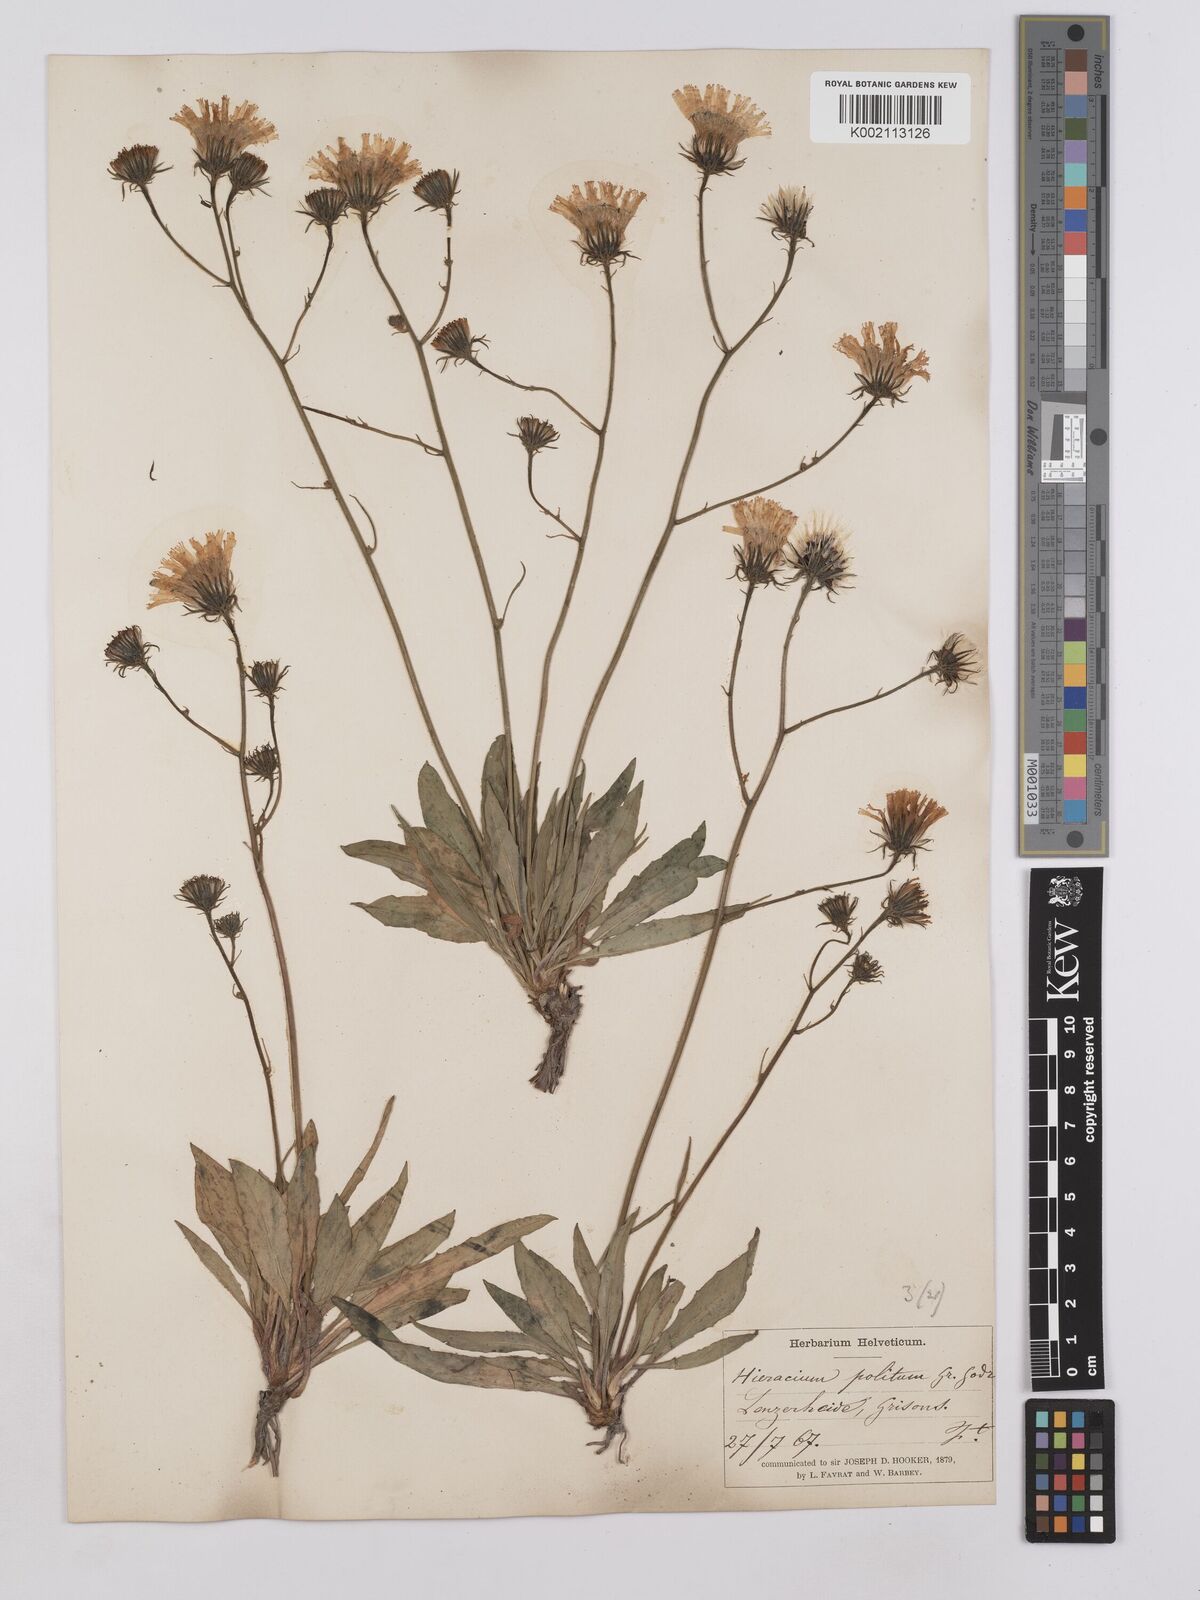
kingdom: Plantae
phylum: Tracheophyta
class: Magnoliopsida
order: Asterales
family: Asteraceae
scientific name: Asteraceae
